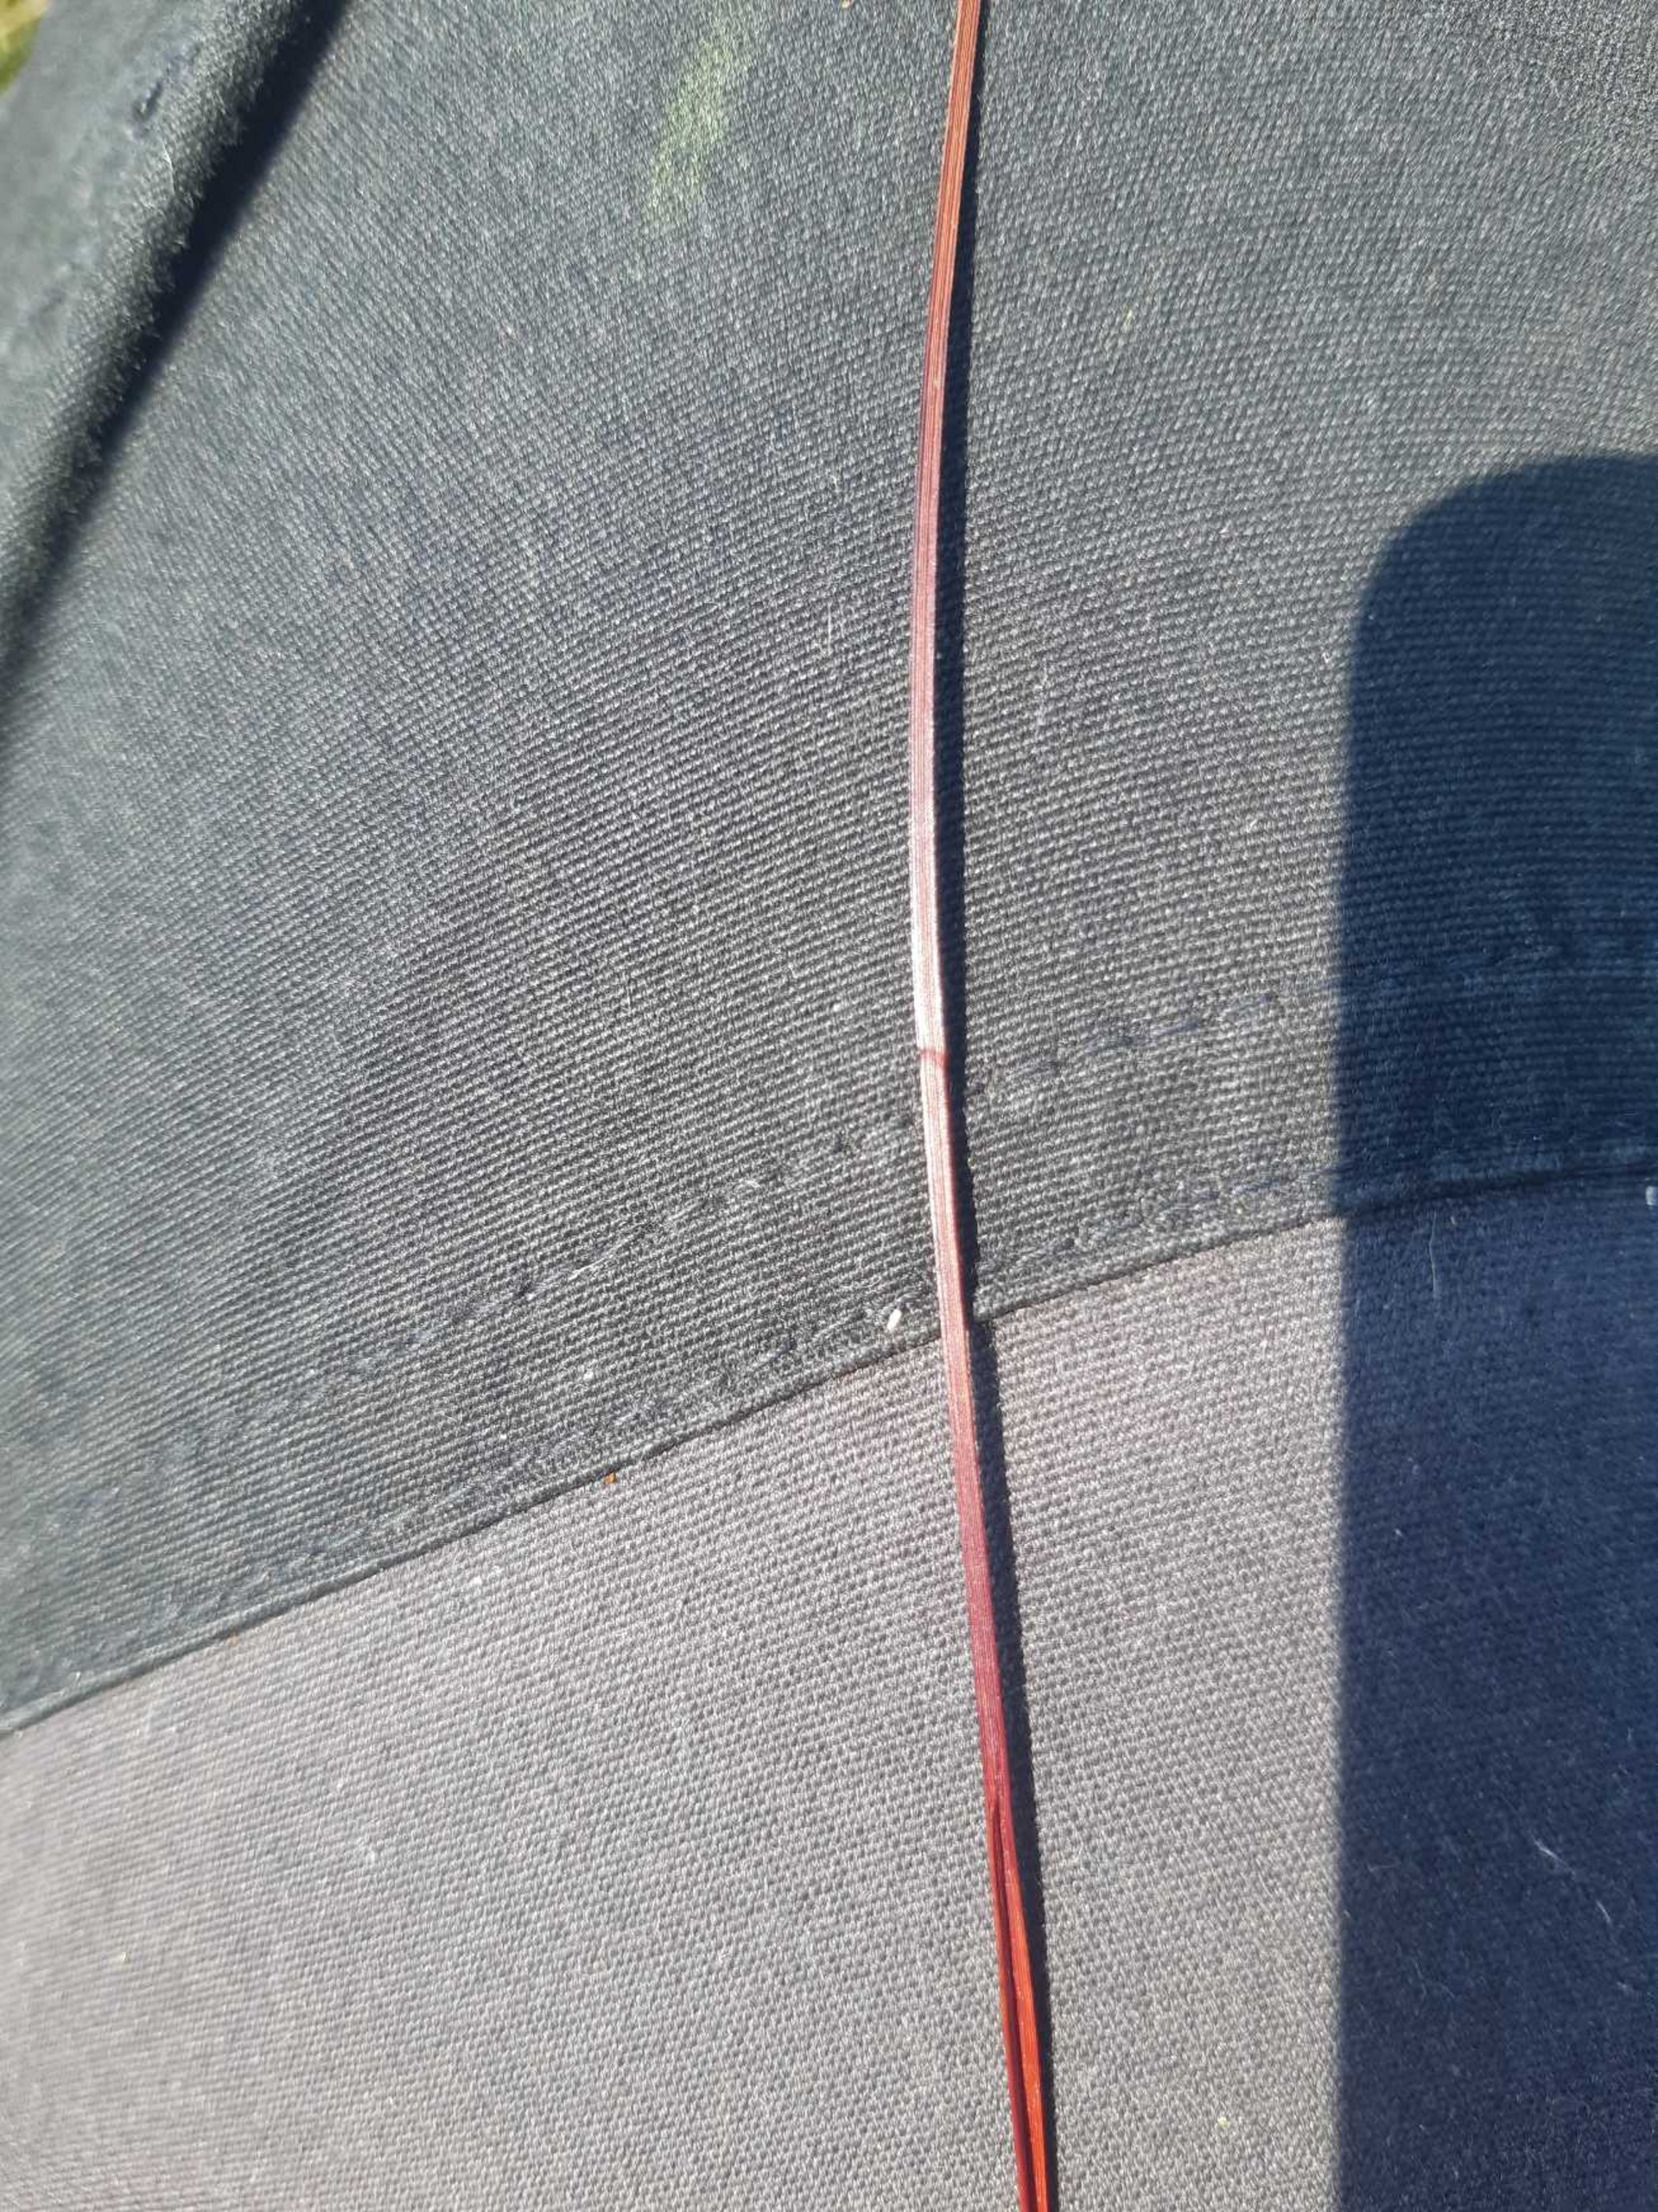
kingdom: Plantae
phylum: Tracheophyta
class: Liliopsida
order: Poales
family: Cyperaceae
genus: Eriophorum
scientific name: Eriophorum angustifolium
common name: Smalbladet kæruld
